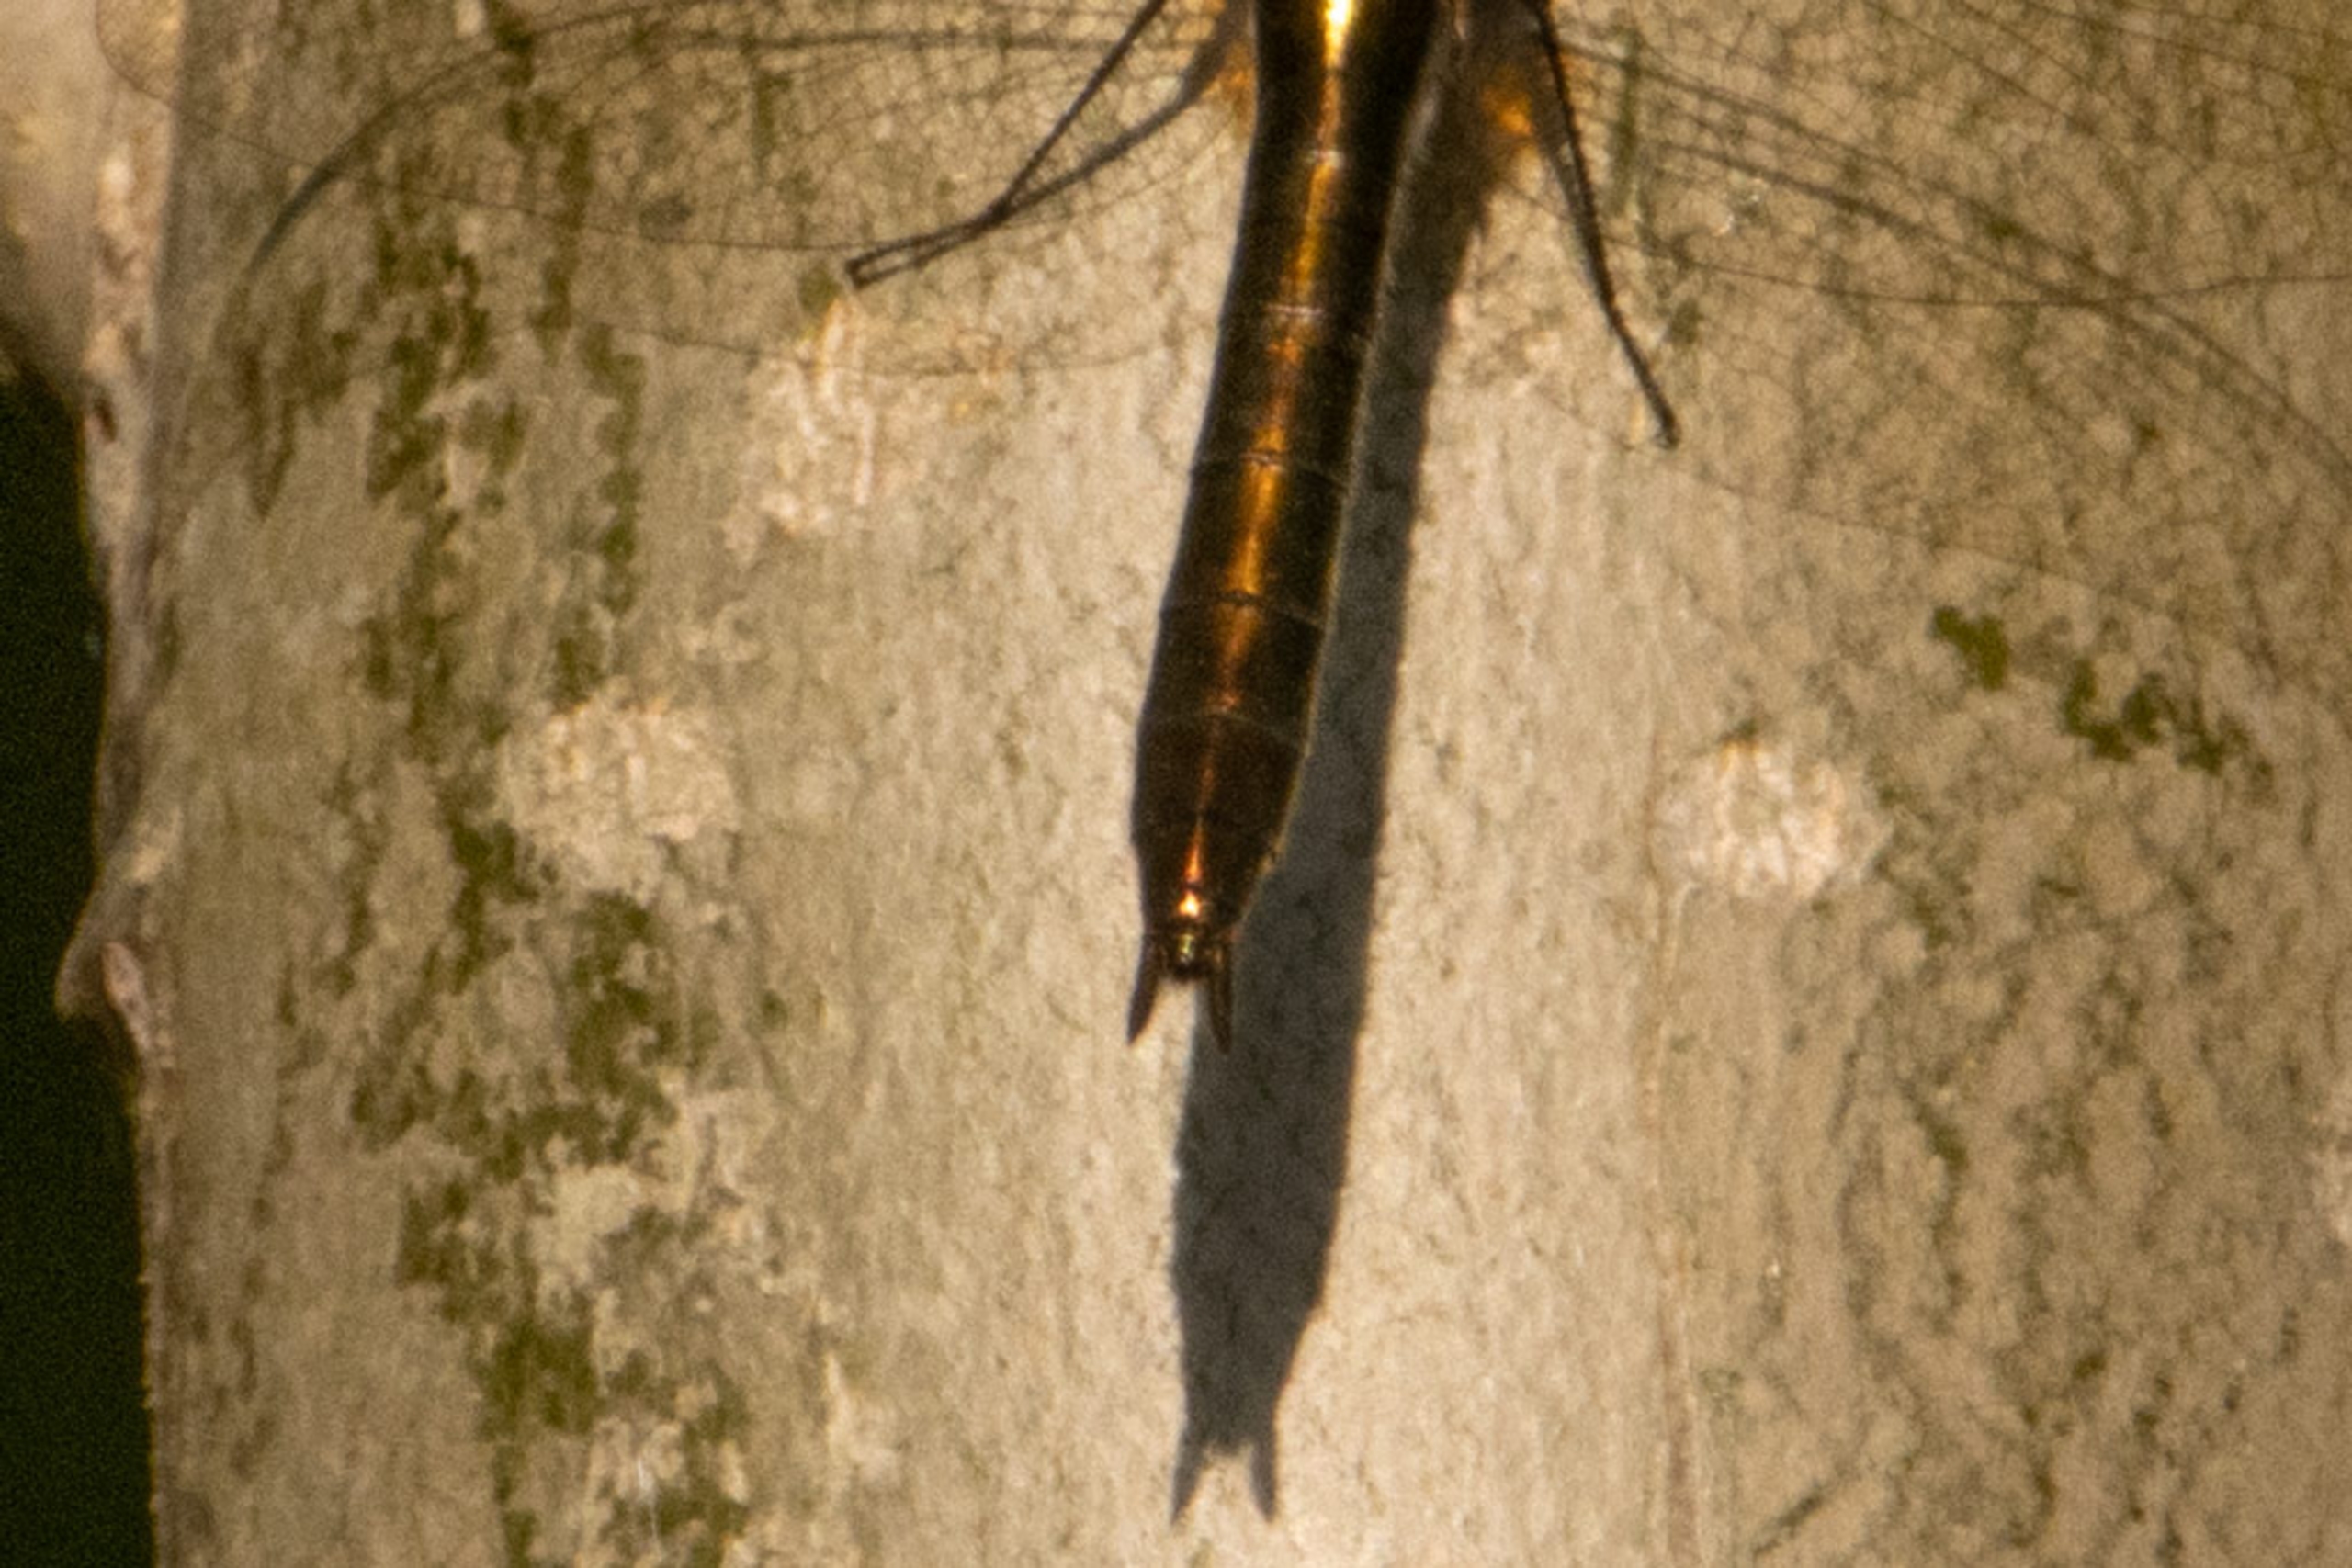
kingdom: Animalia
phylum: Arthropoda
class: Insecta
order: Odonata
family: Corduliidae
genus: Cordulia
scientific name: Cordulia aenea
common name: Grøn smaragdlibel
